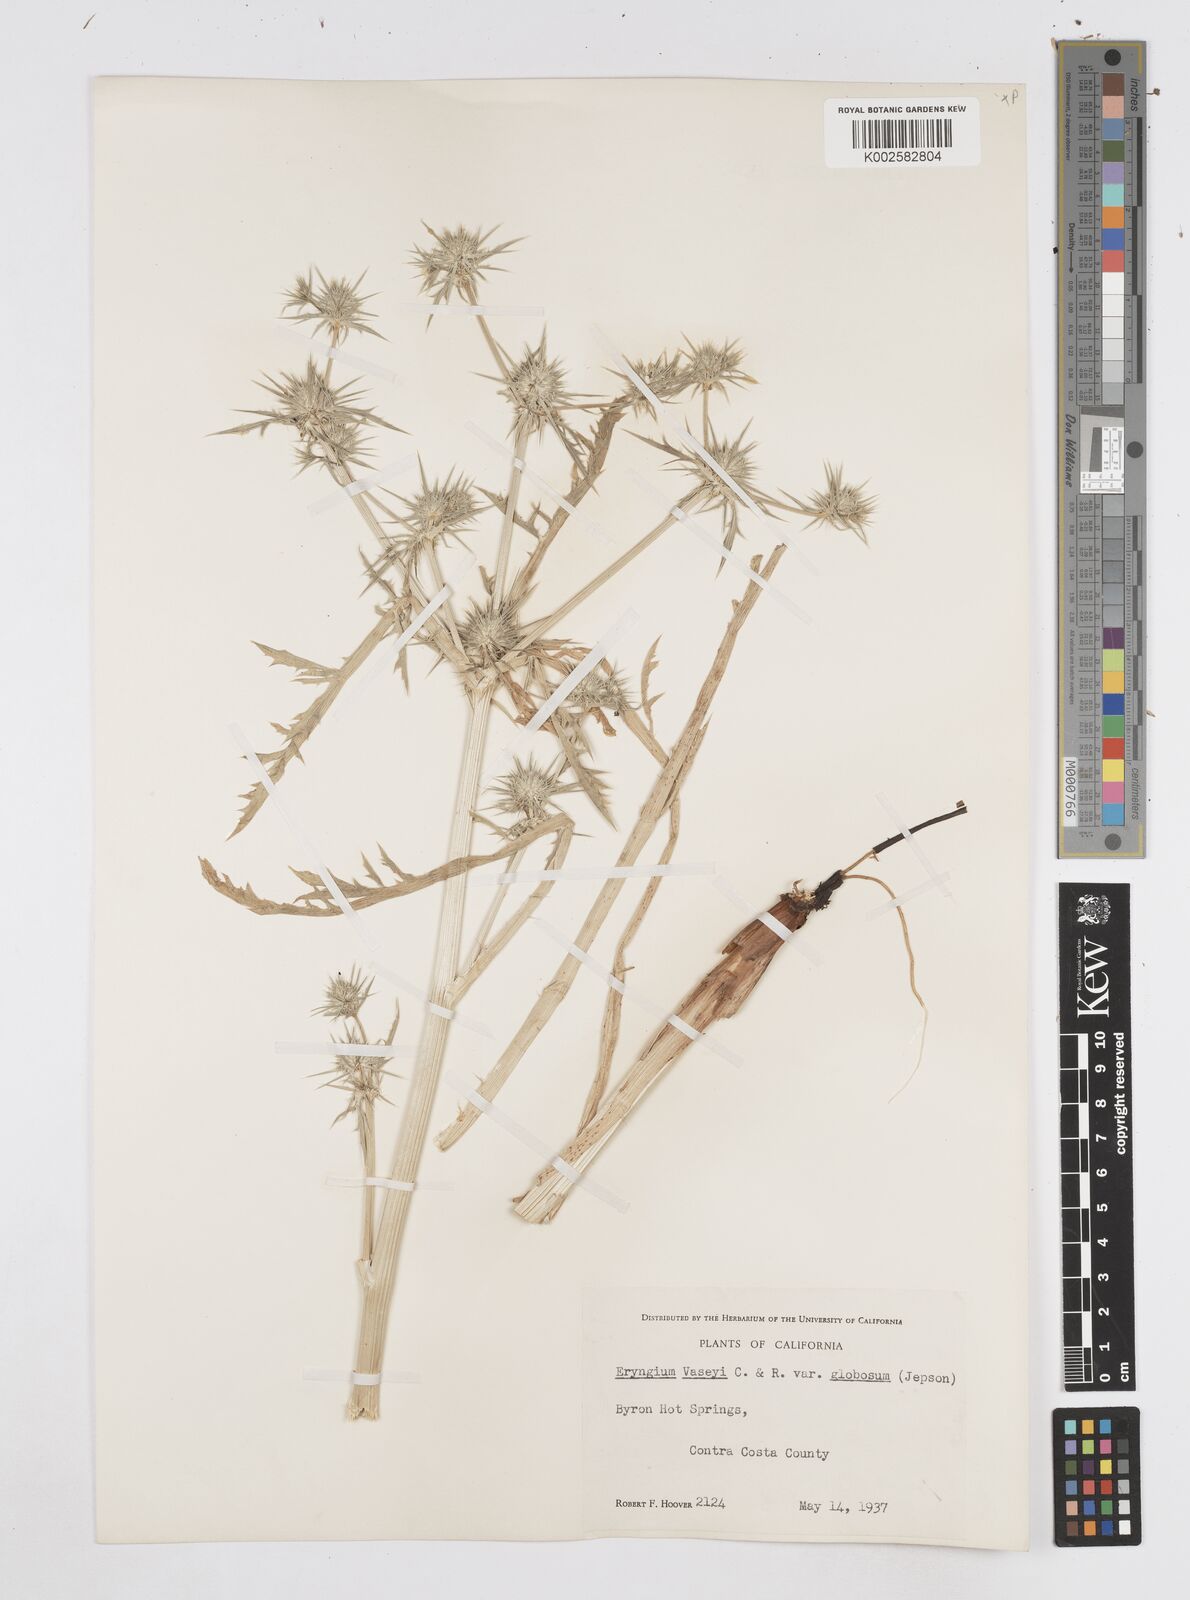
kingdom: Plantae
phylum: Tracheophyta
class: Magnoliopsida
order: Apiales
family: Apiaceae
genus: Eryngium
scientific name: Eryngium vaseyi
